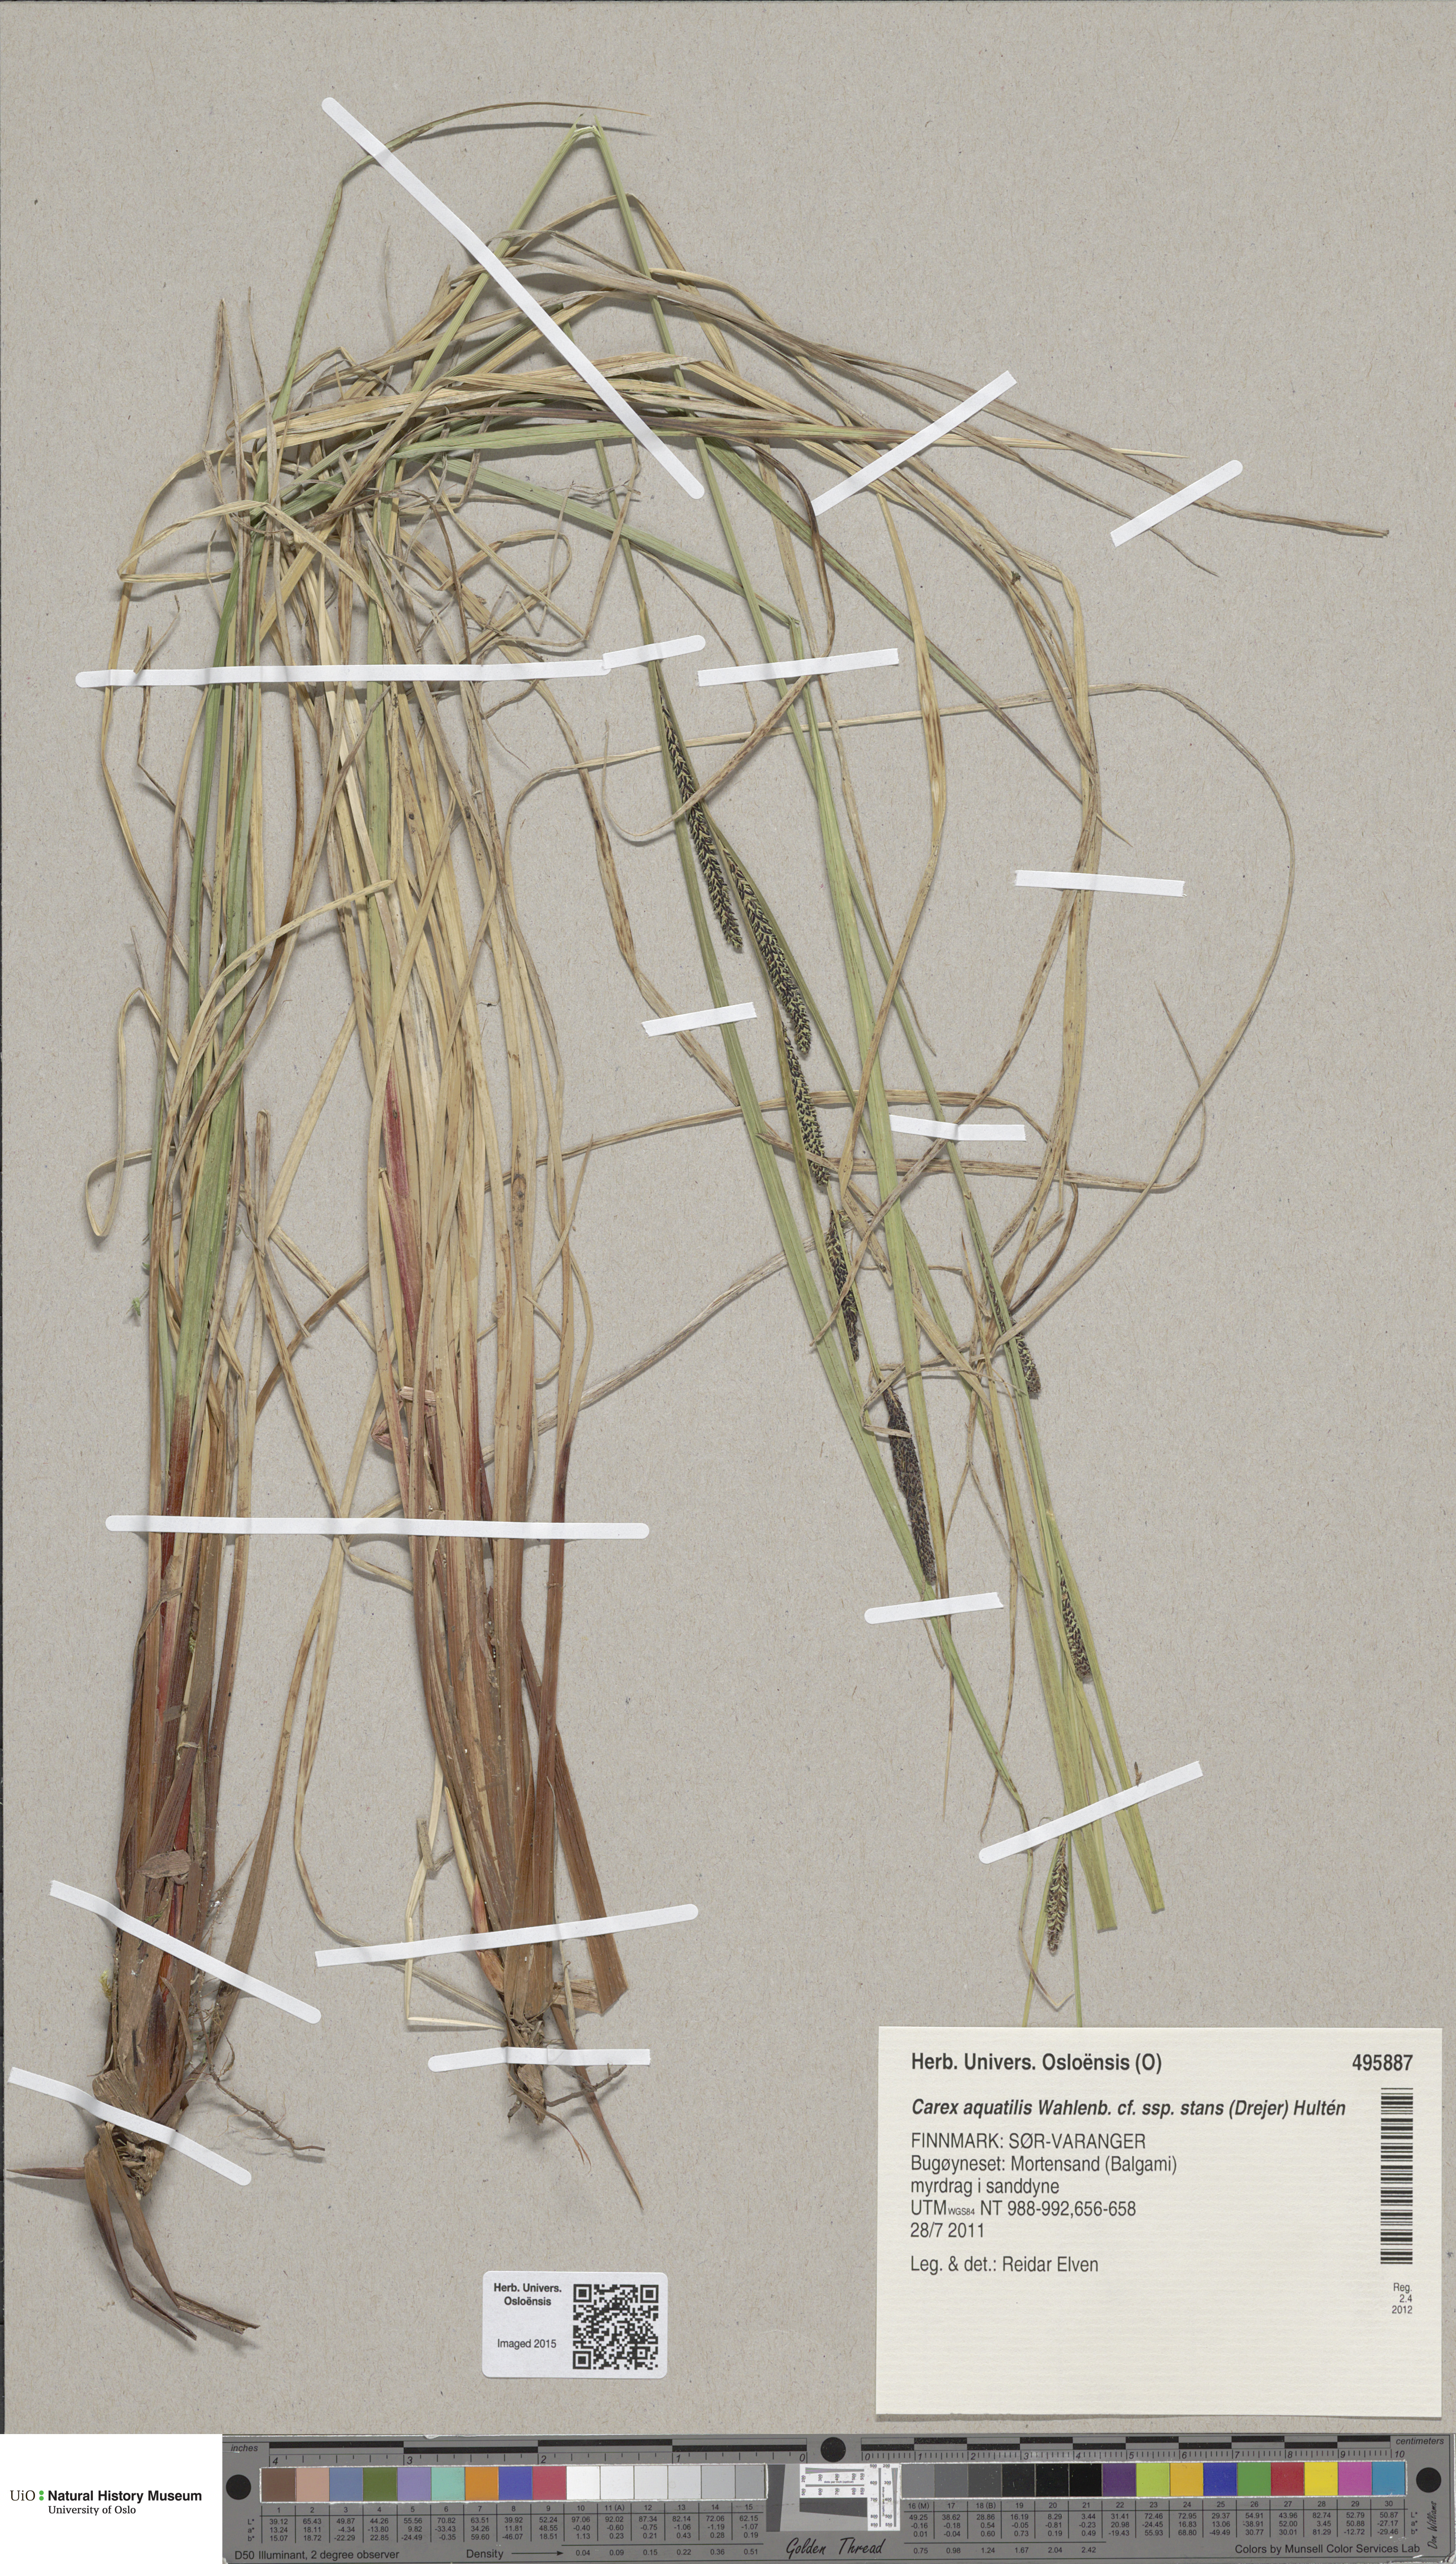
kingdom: Plantae
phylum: Tracheophyta
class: Liliopsida
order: Poales
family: Cyperaceae
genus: Carex
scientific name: Carex aquatilis
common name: Water sedge
